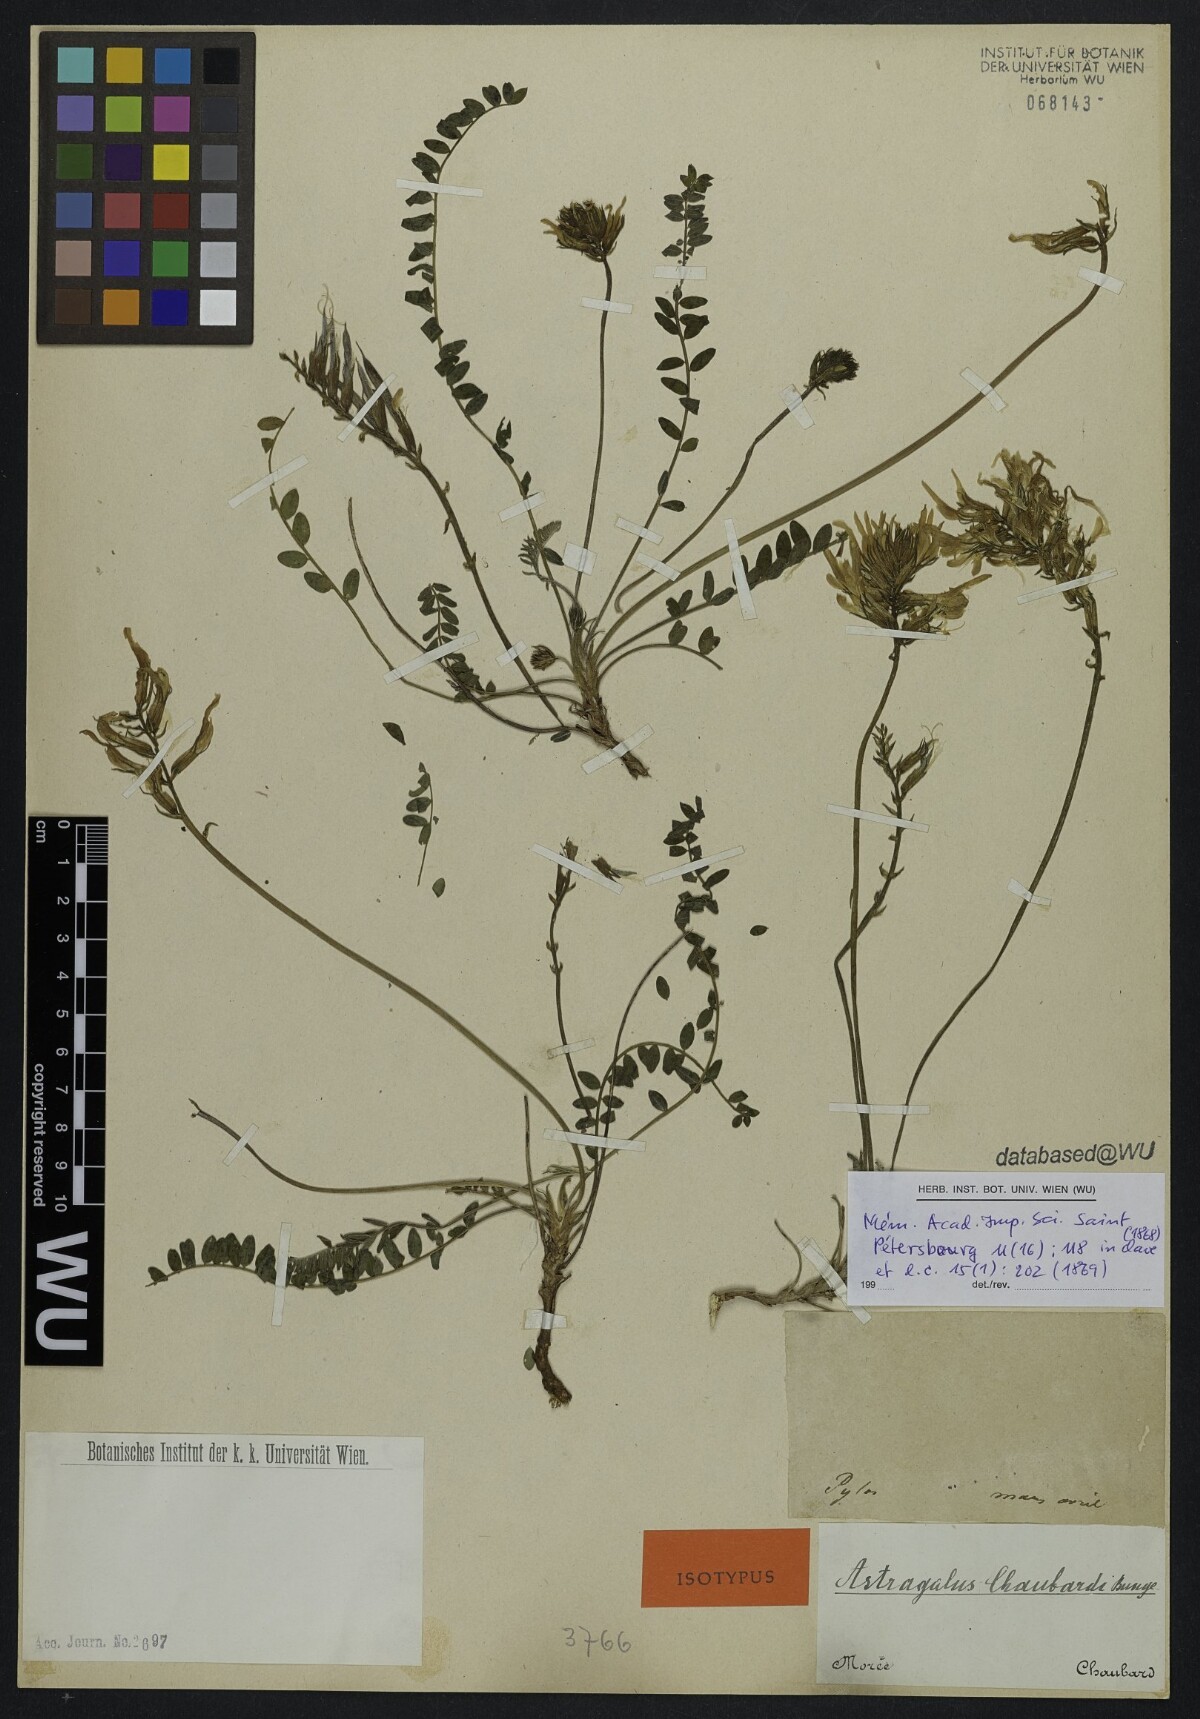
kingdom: Plantae
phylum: Tracheophyta
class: Magnoliopsida
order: Fabales
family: Fabaceae
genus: Astragalus
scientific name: Astragalus monspessulanus
